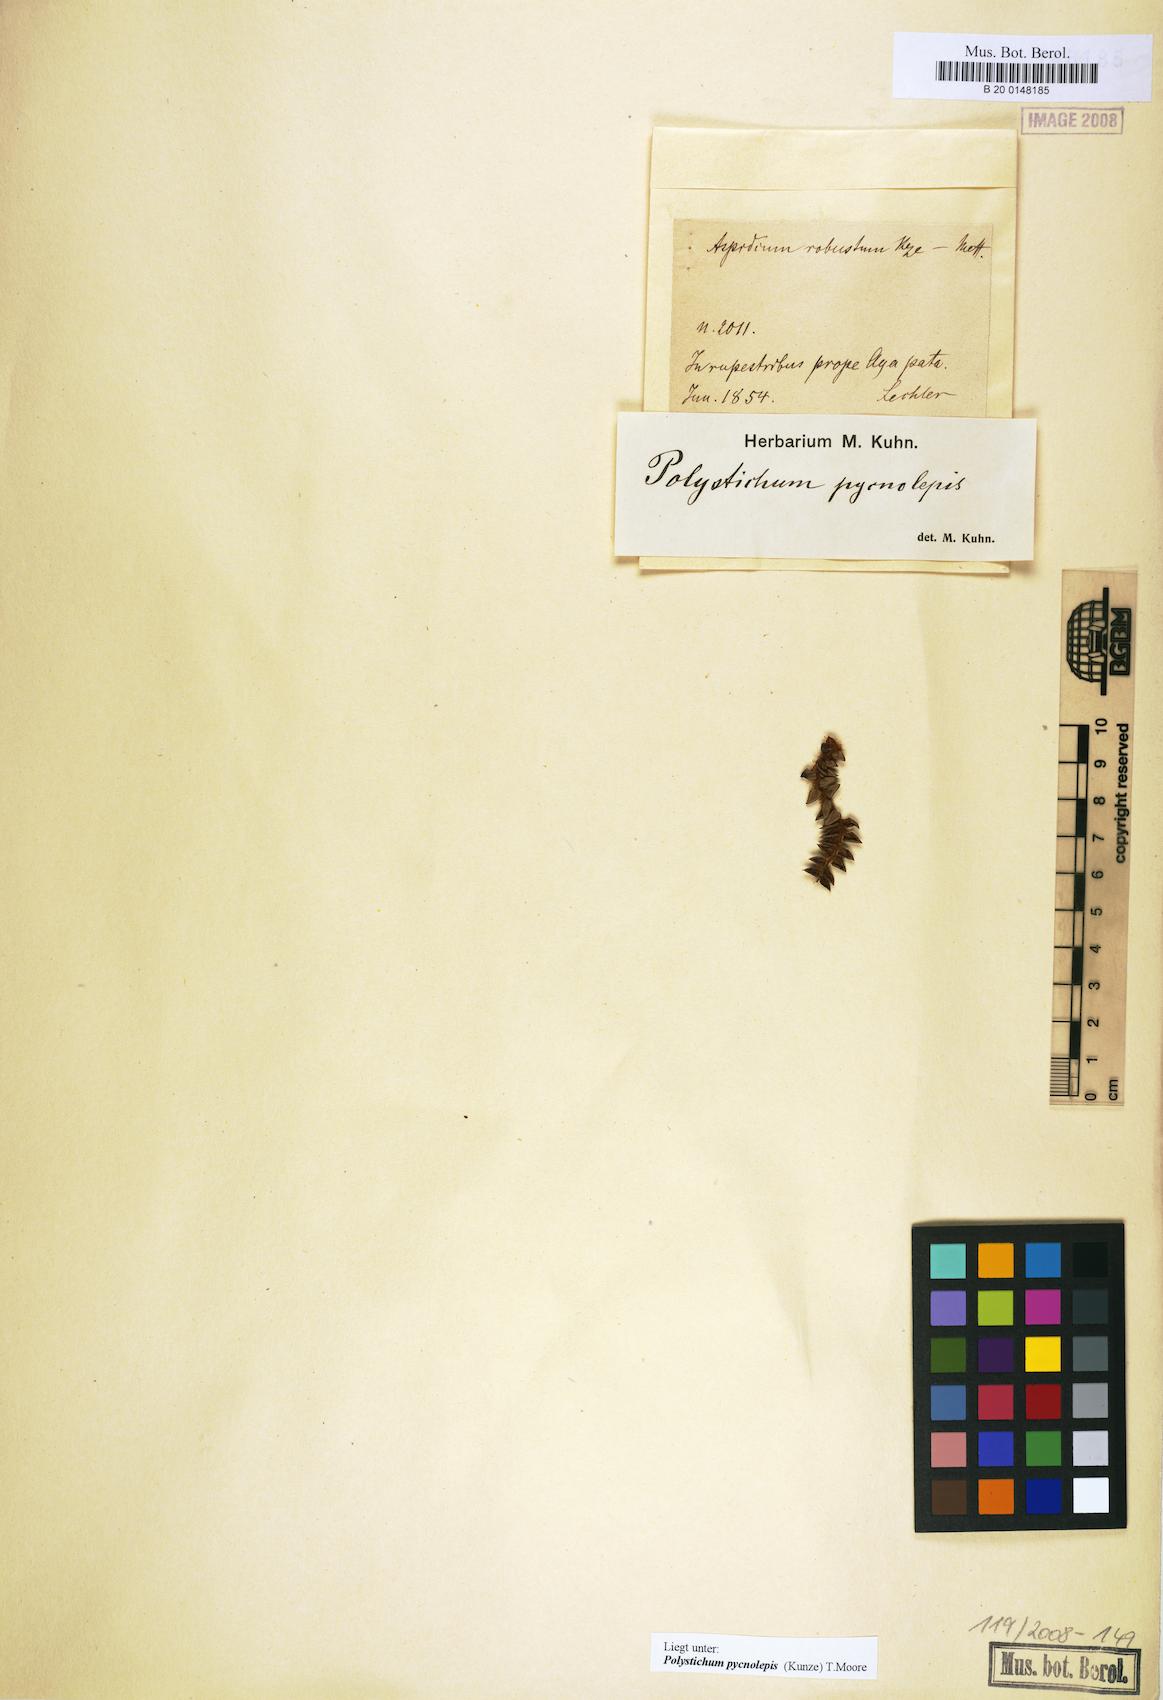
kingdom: Plantae
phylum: Tracheophyta
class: Polypodiopsida
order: Polypodiales
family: Dryopteridaceae
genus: Polystichum
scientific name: Polystichum pycnolepis
